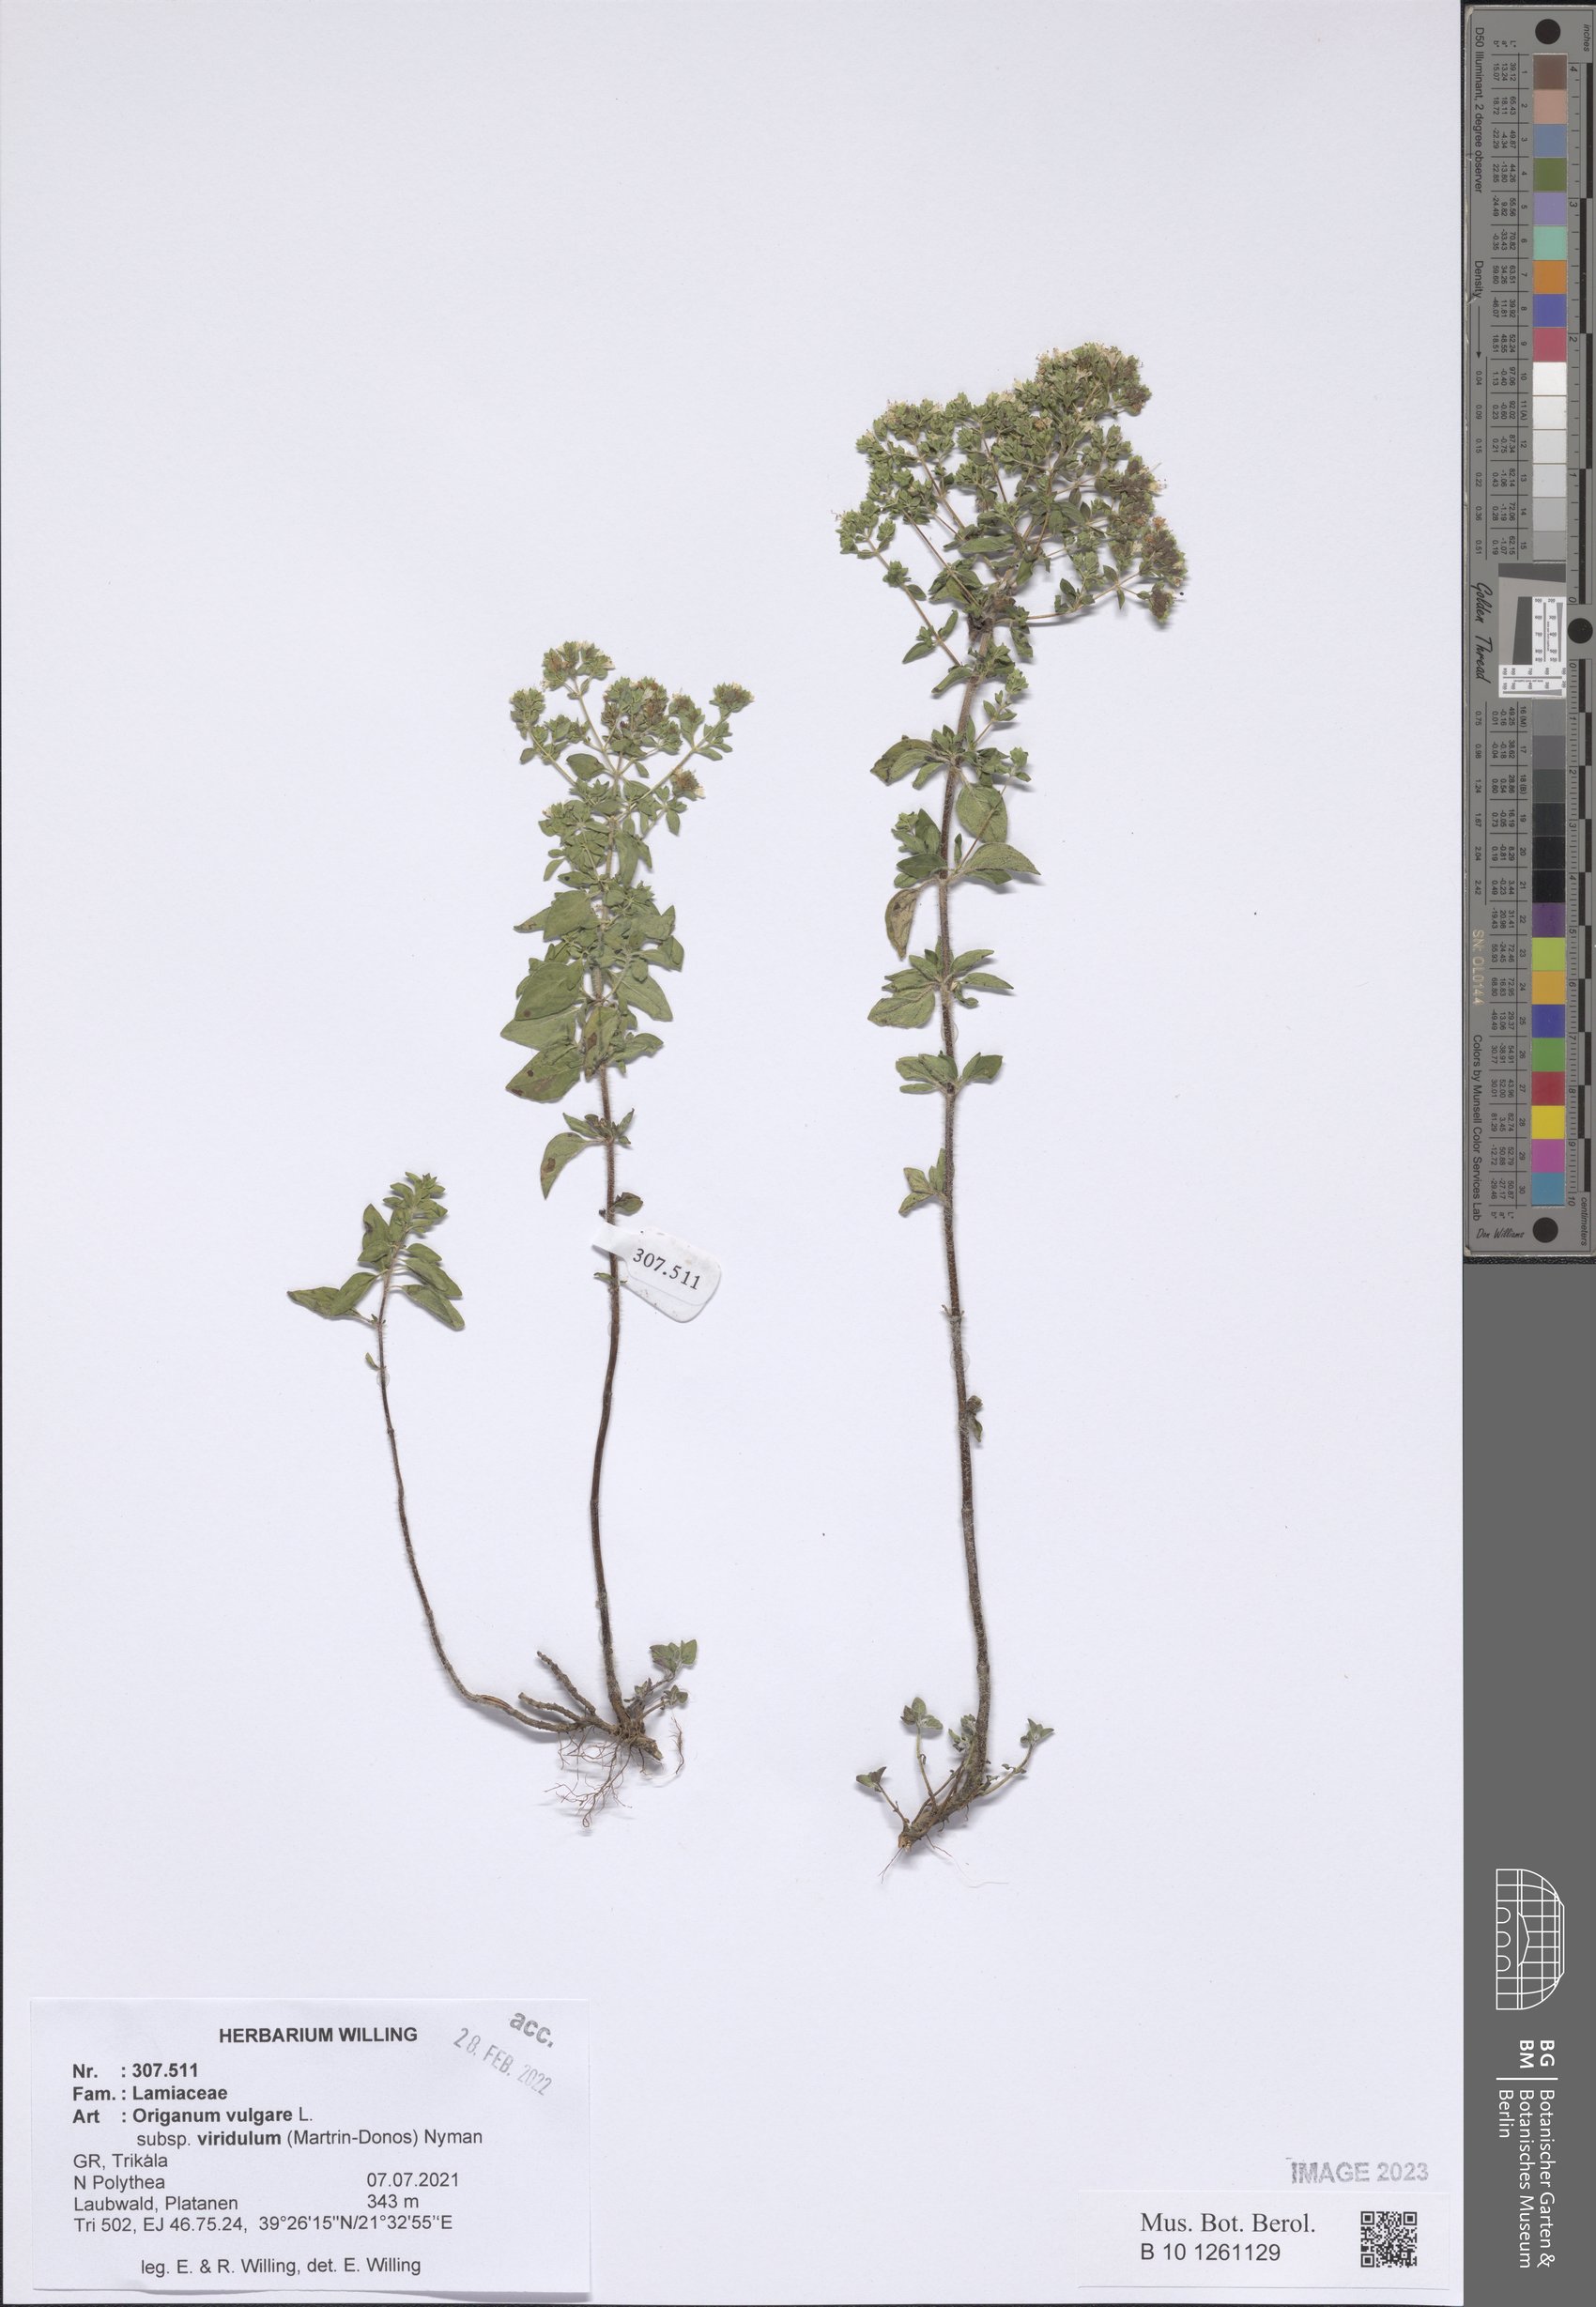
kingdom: Plantae
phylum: Tracheophyta
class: Magnoliopsida
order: Lamiales
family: Lamiaceae
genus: Origanum
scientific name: Origanum vulgare
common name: Wild marjoram
